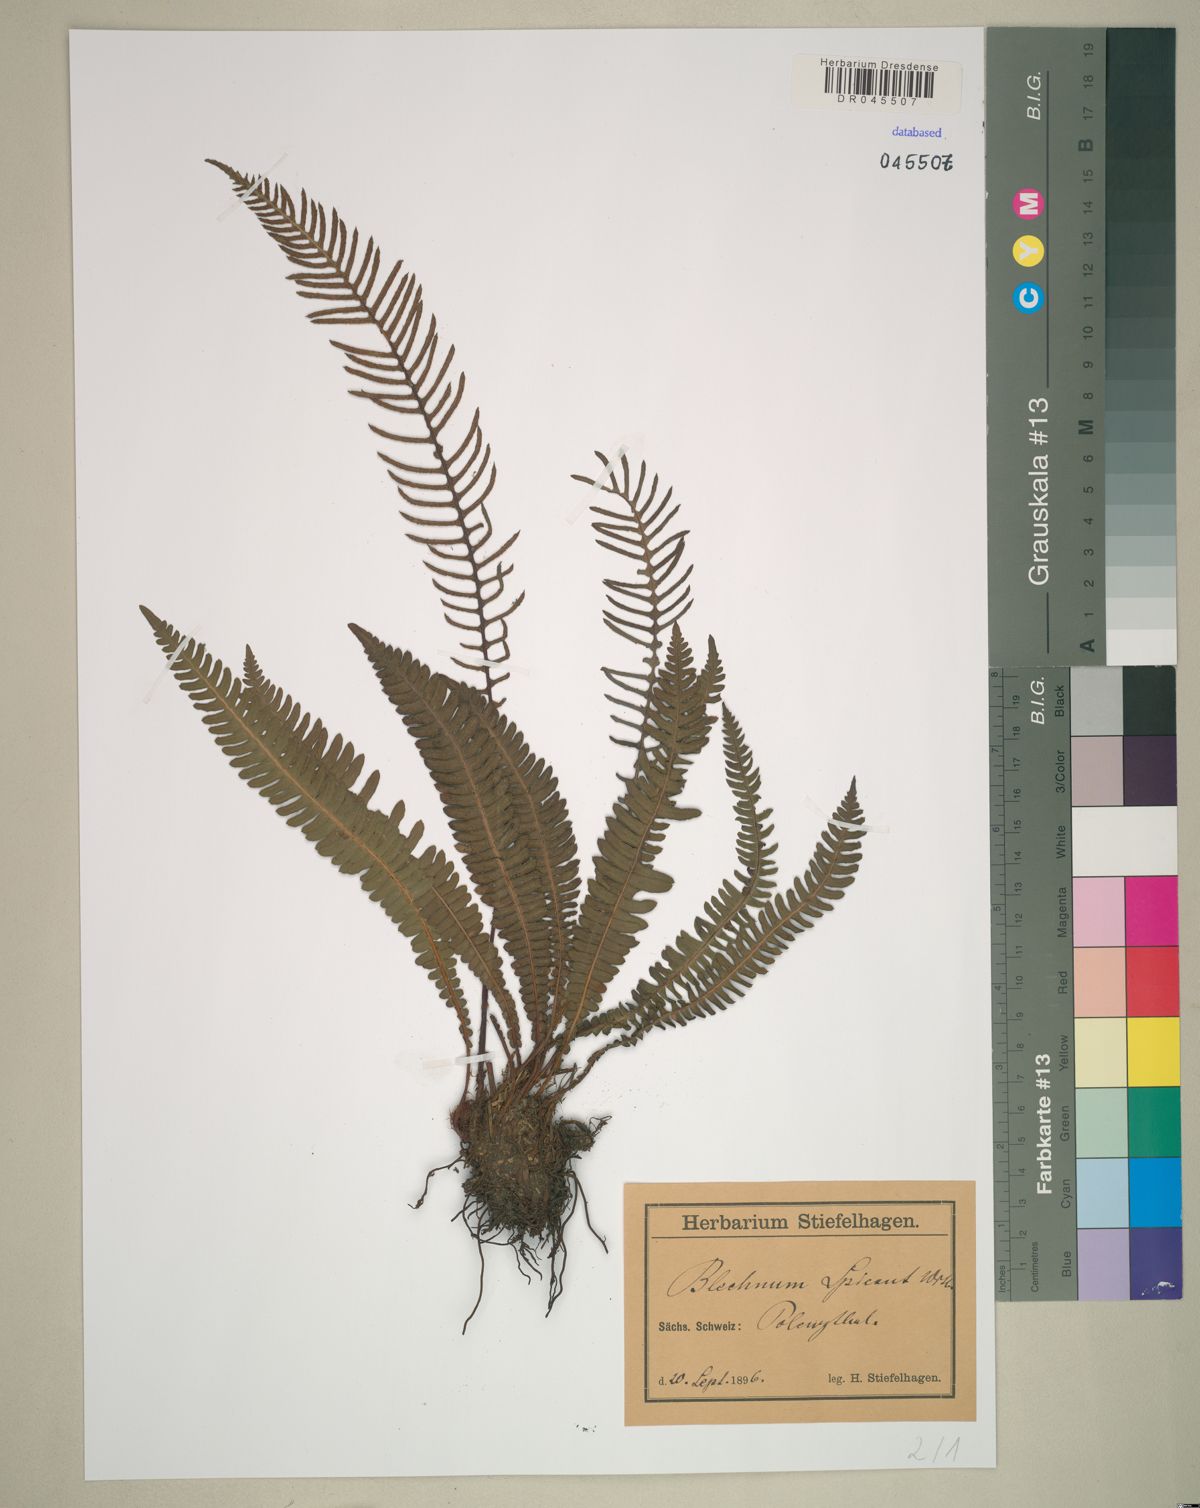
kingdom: Plantae
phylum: Tracheophyta
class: Polypodiopsida
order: Polypodiales
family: Blechnaceae
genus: Struthiopteris
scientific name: Struthiopteris spicant
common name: Deer fern
